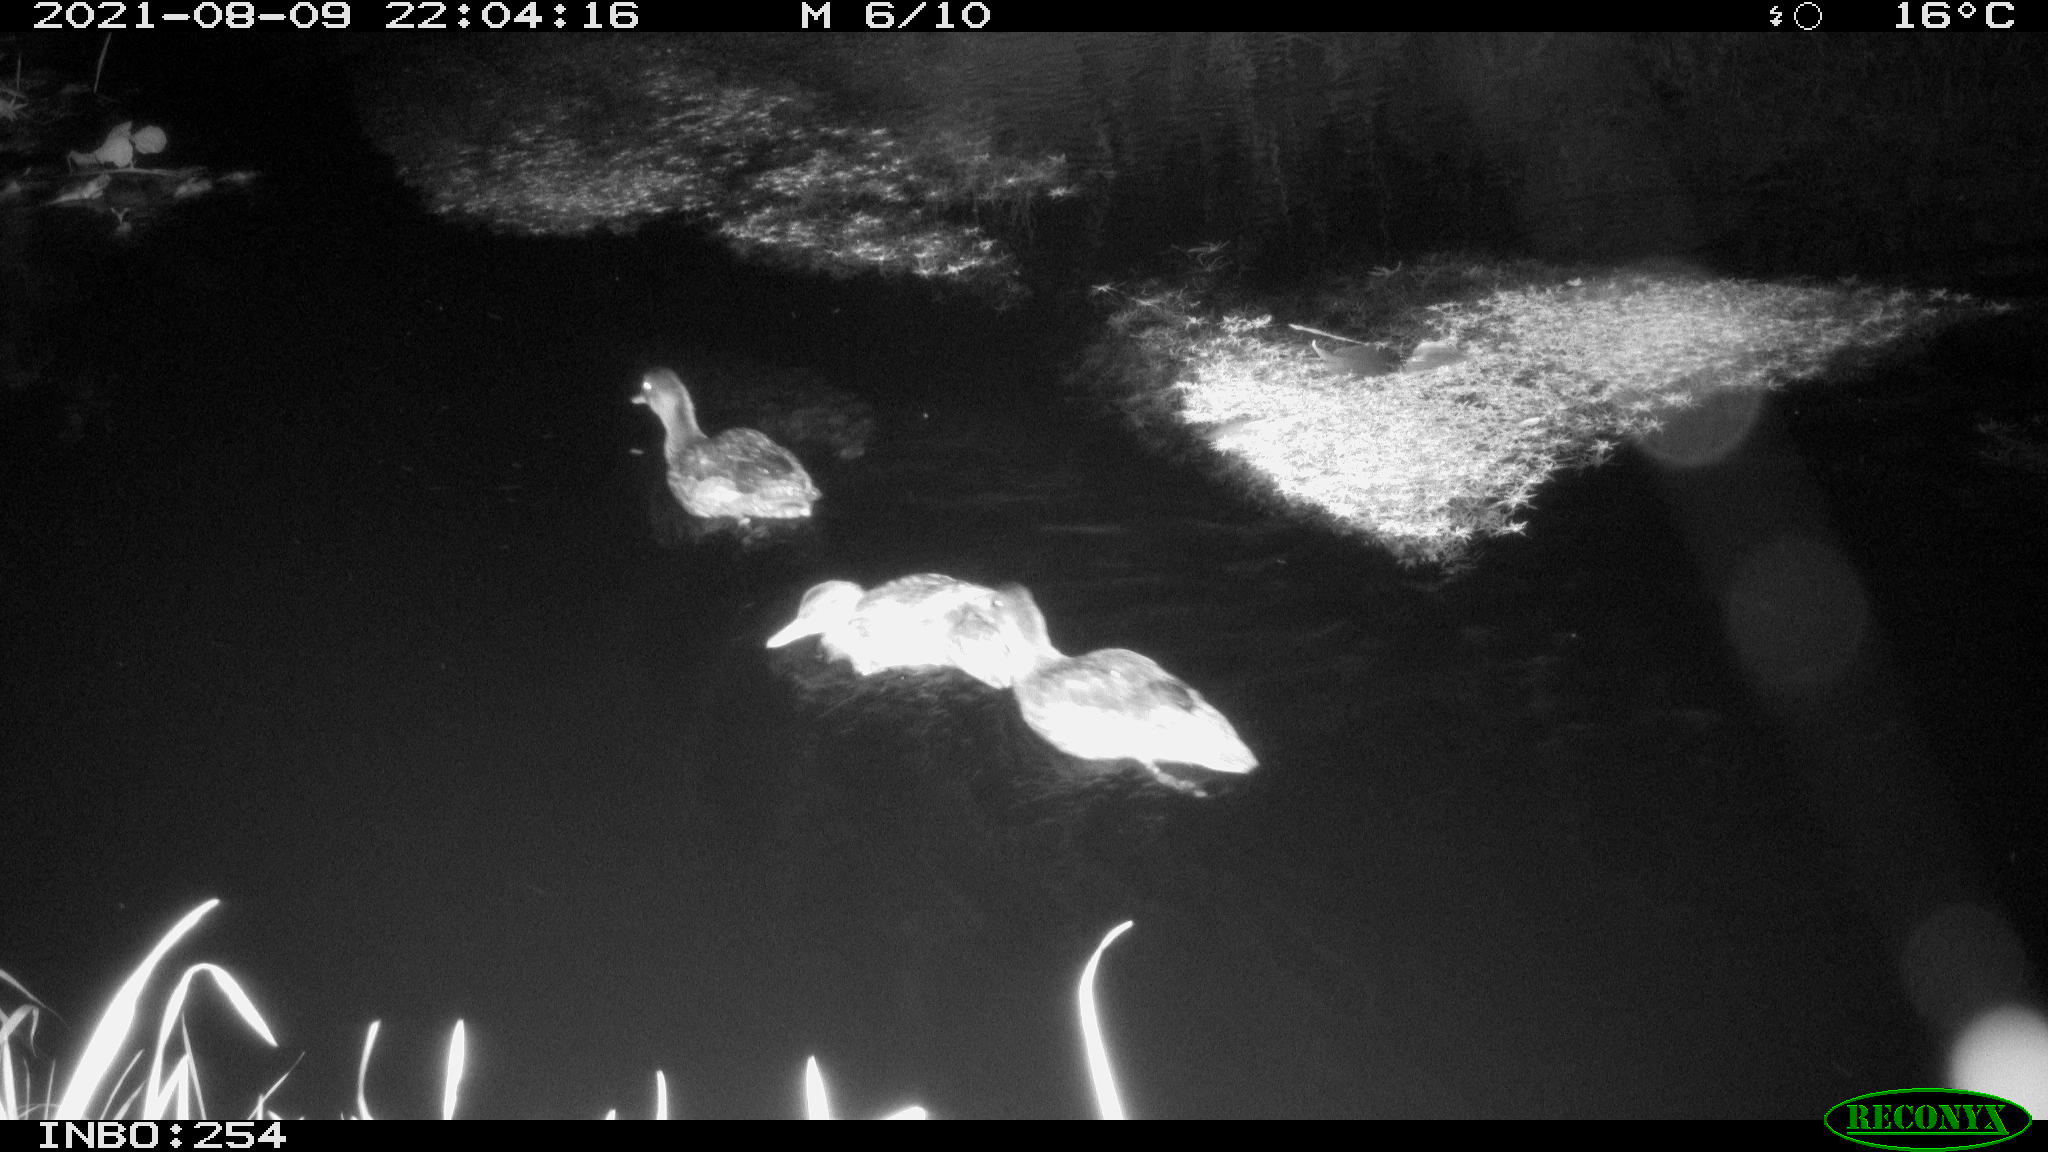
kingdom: Animalia
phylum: Chordata
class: Aves
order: Anseriformes
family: Anatidae
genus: Anas
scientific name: Anas platyrhynchos
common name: Mallard
